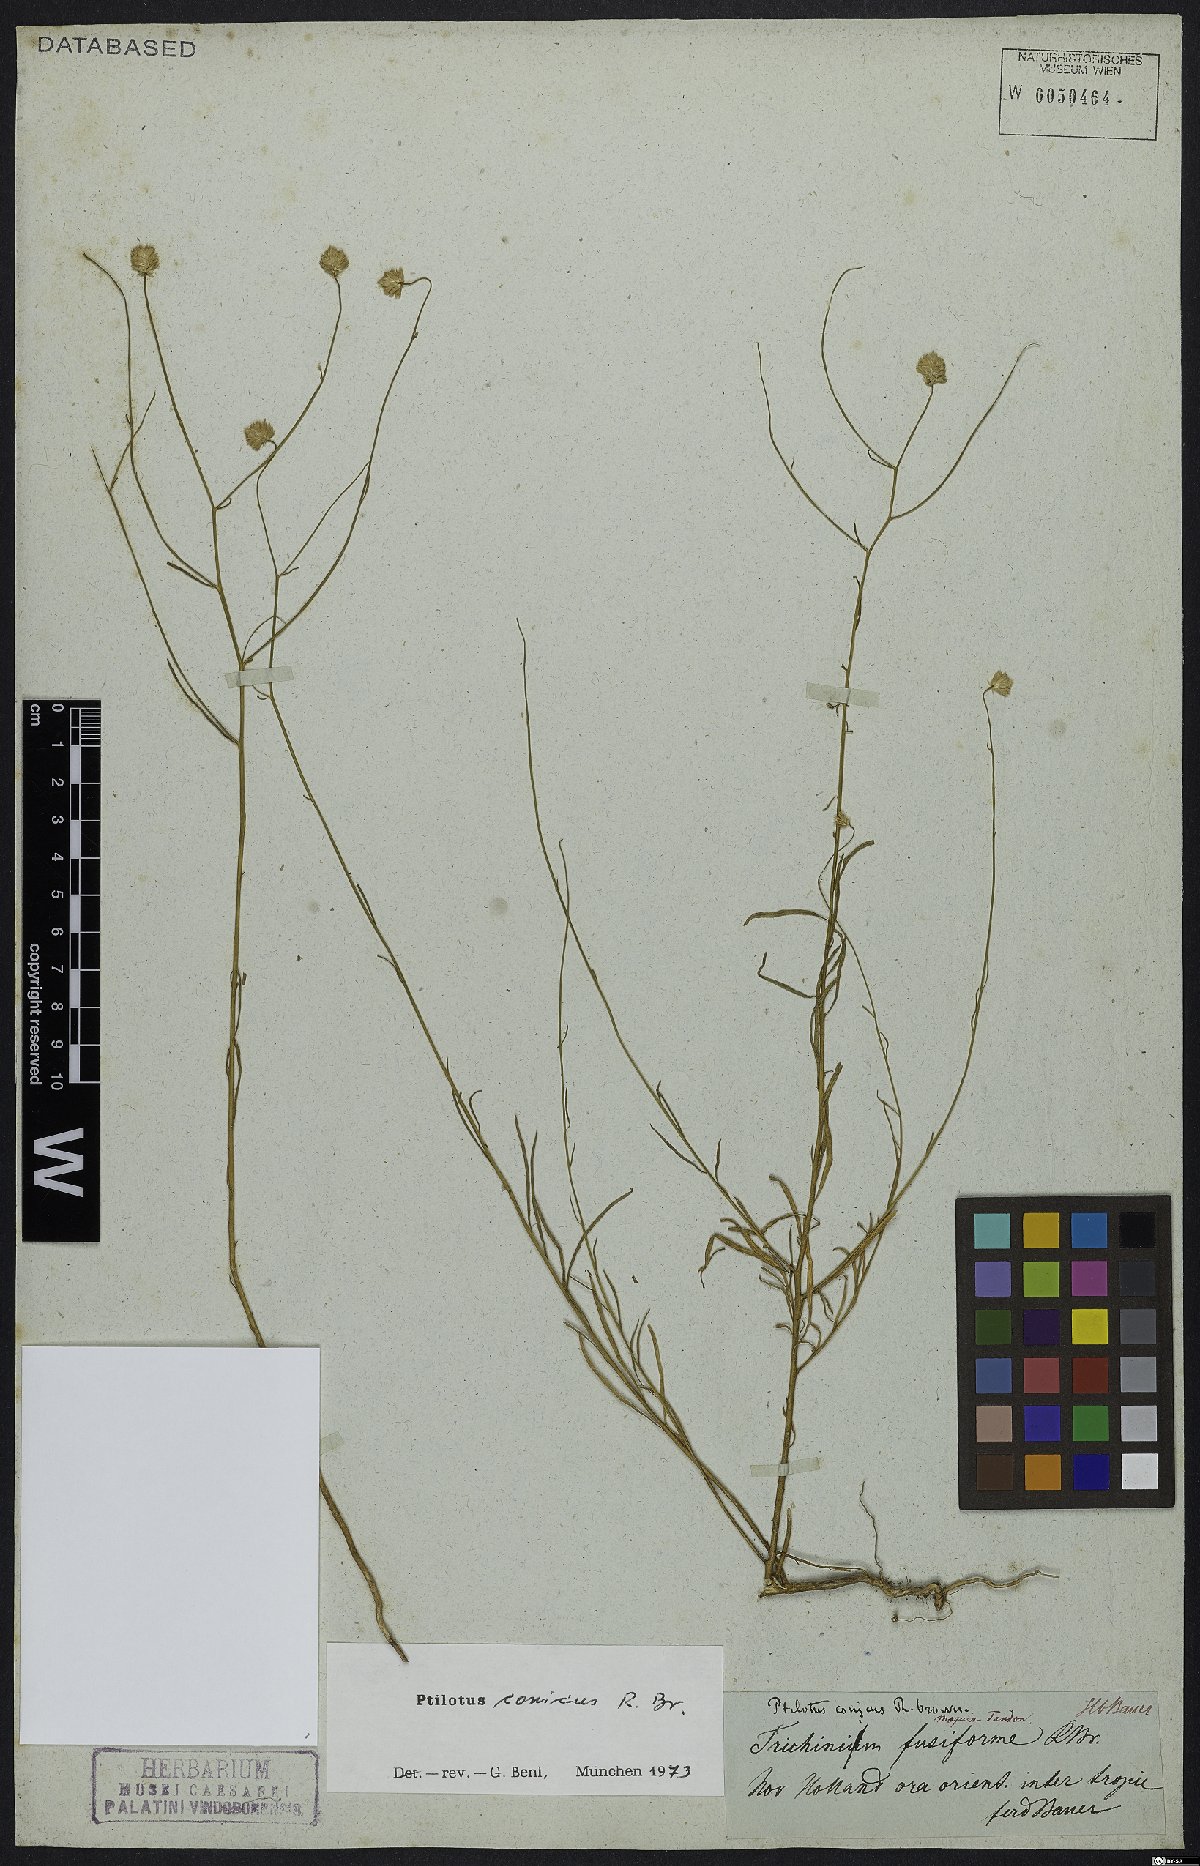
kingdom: Plantae
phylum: Tracheophyta
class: Magnoliopsida
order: Caryophyllales
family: Amaranthaceae
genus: Ptilotus
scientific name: Ptilotus conicus
